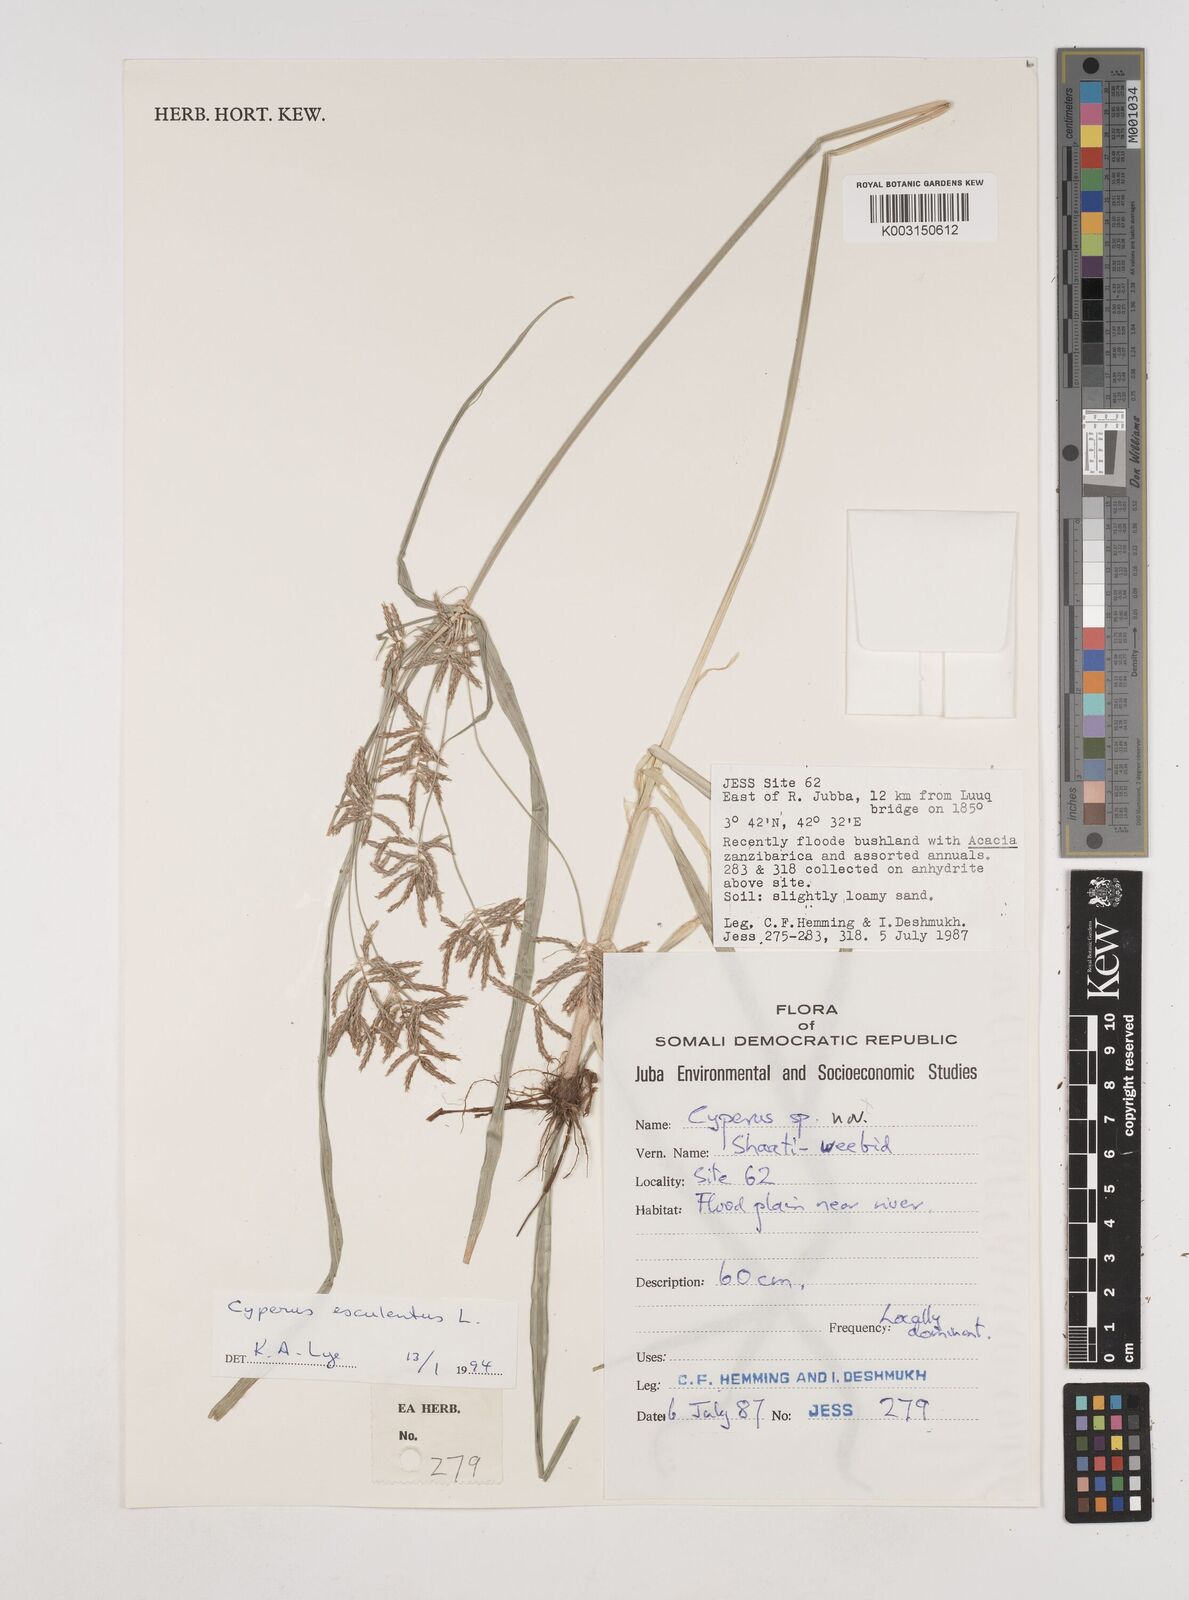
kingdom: Plantae
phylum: Tracheophyta
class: Liliopsida
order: Poales
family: Cyperaceae
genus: Cyperus
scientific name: Cyperus esculentus
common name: Yellow nutsedge
